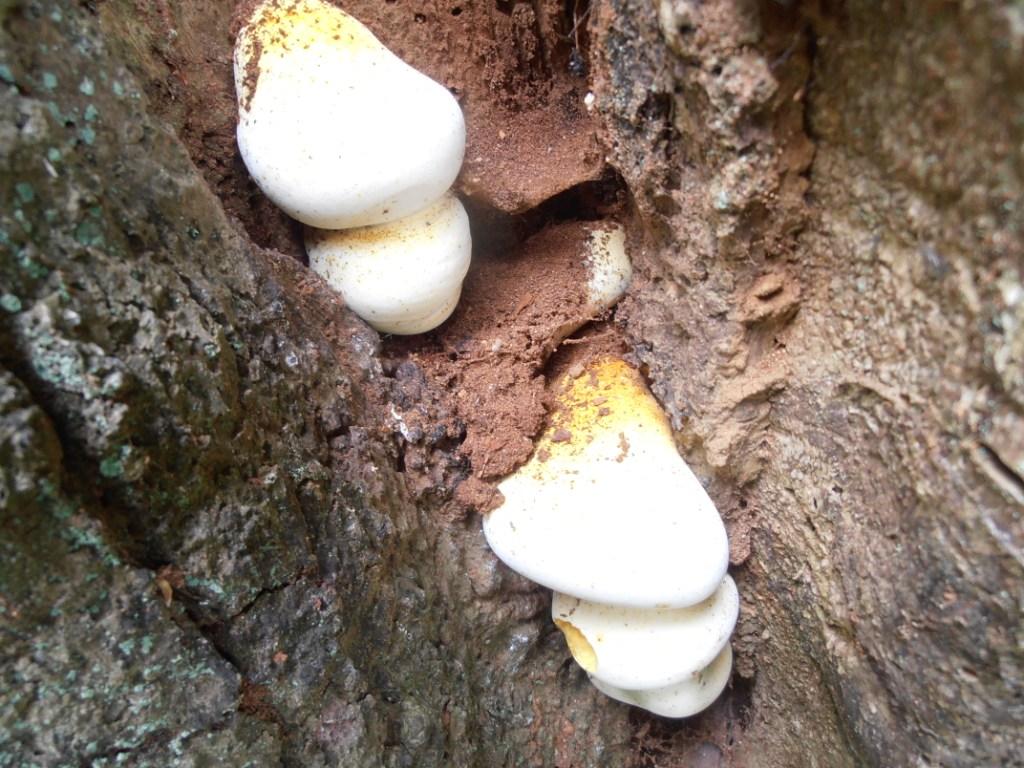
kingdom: Fungi
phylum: Basidiomycota
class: Agaricomycetes
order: Polyporales
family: Fomitopsidaceae
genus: Buglossoporus
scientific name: Buglossoporus quercinus
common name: egetunge
